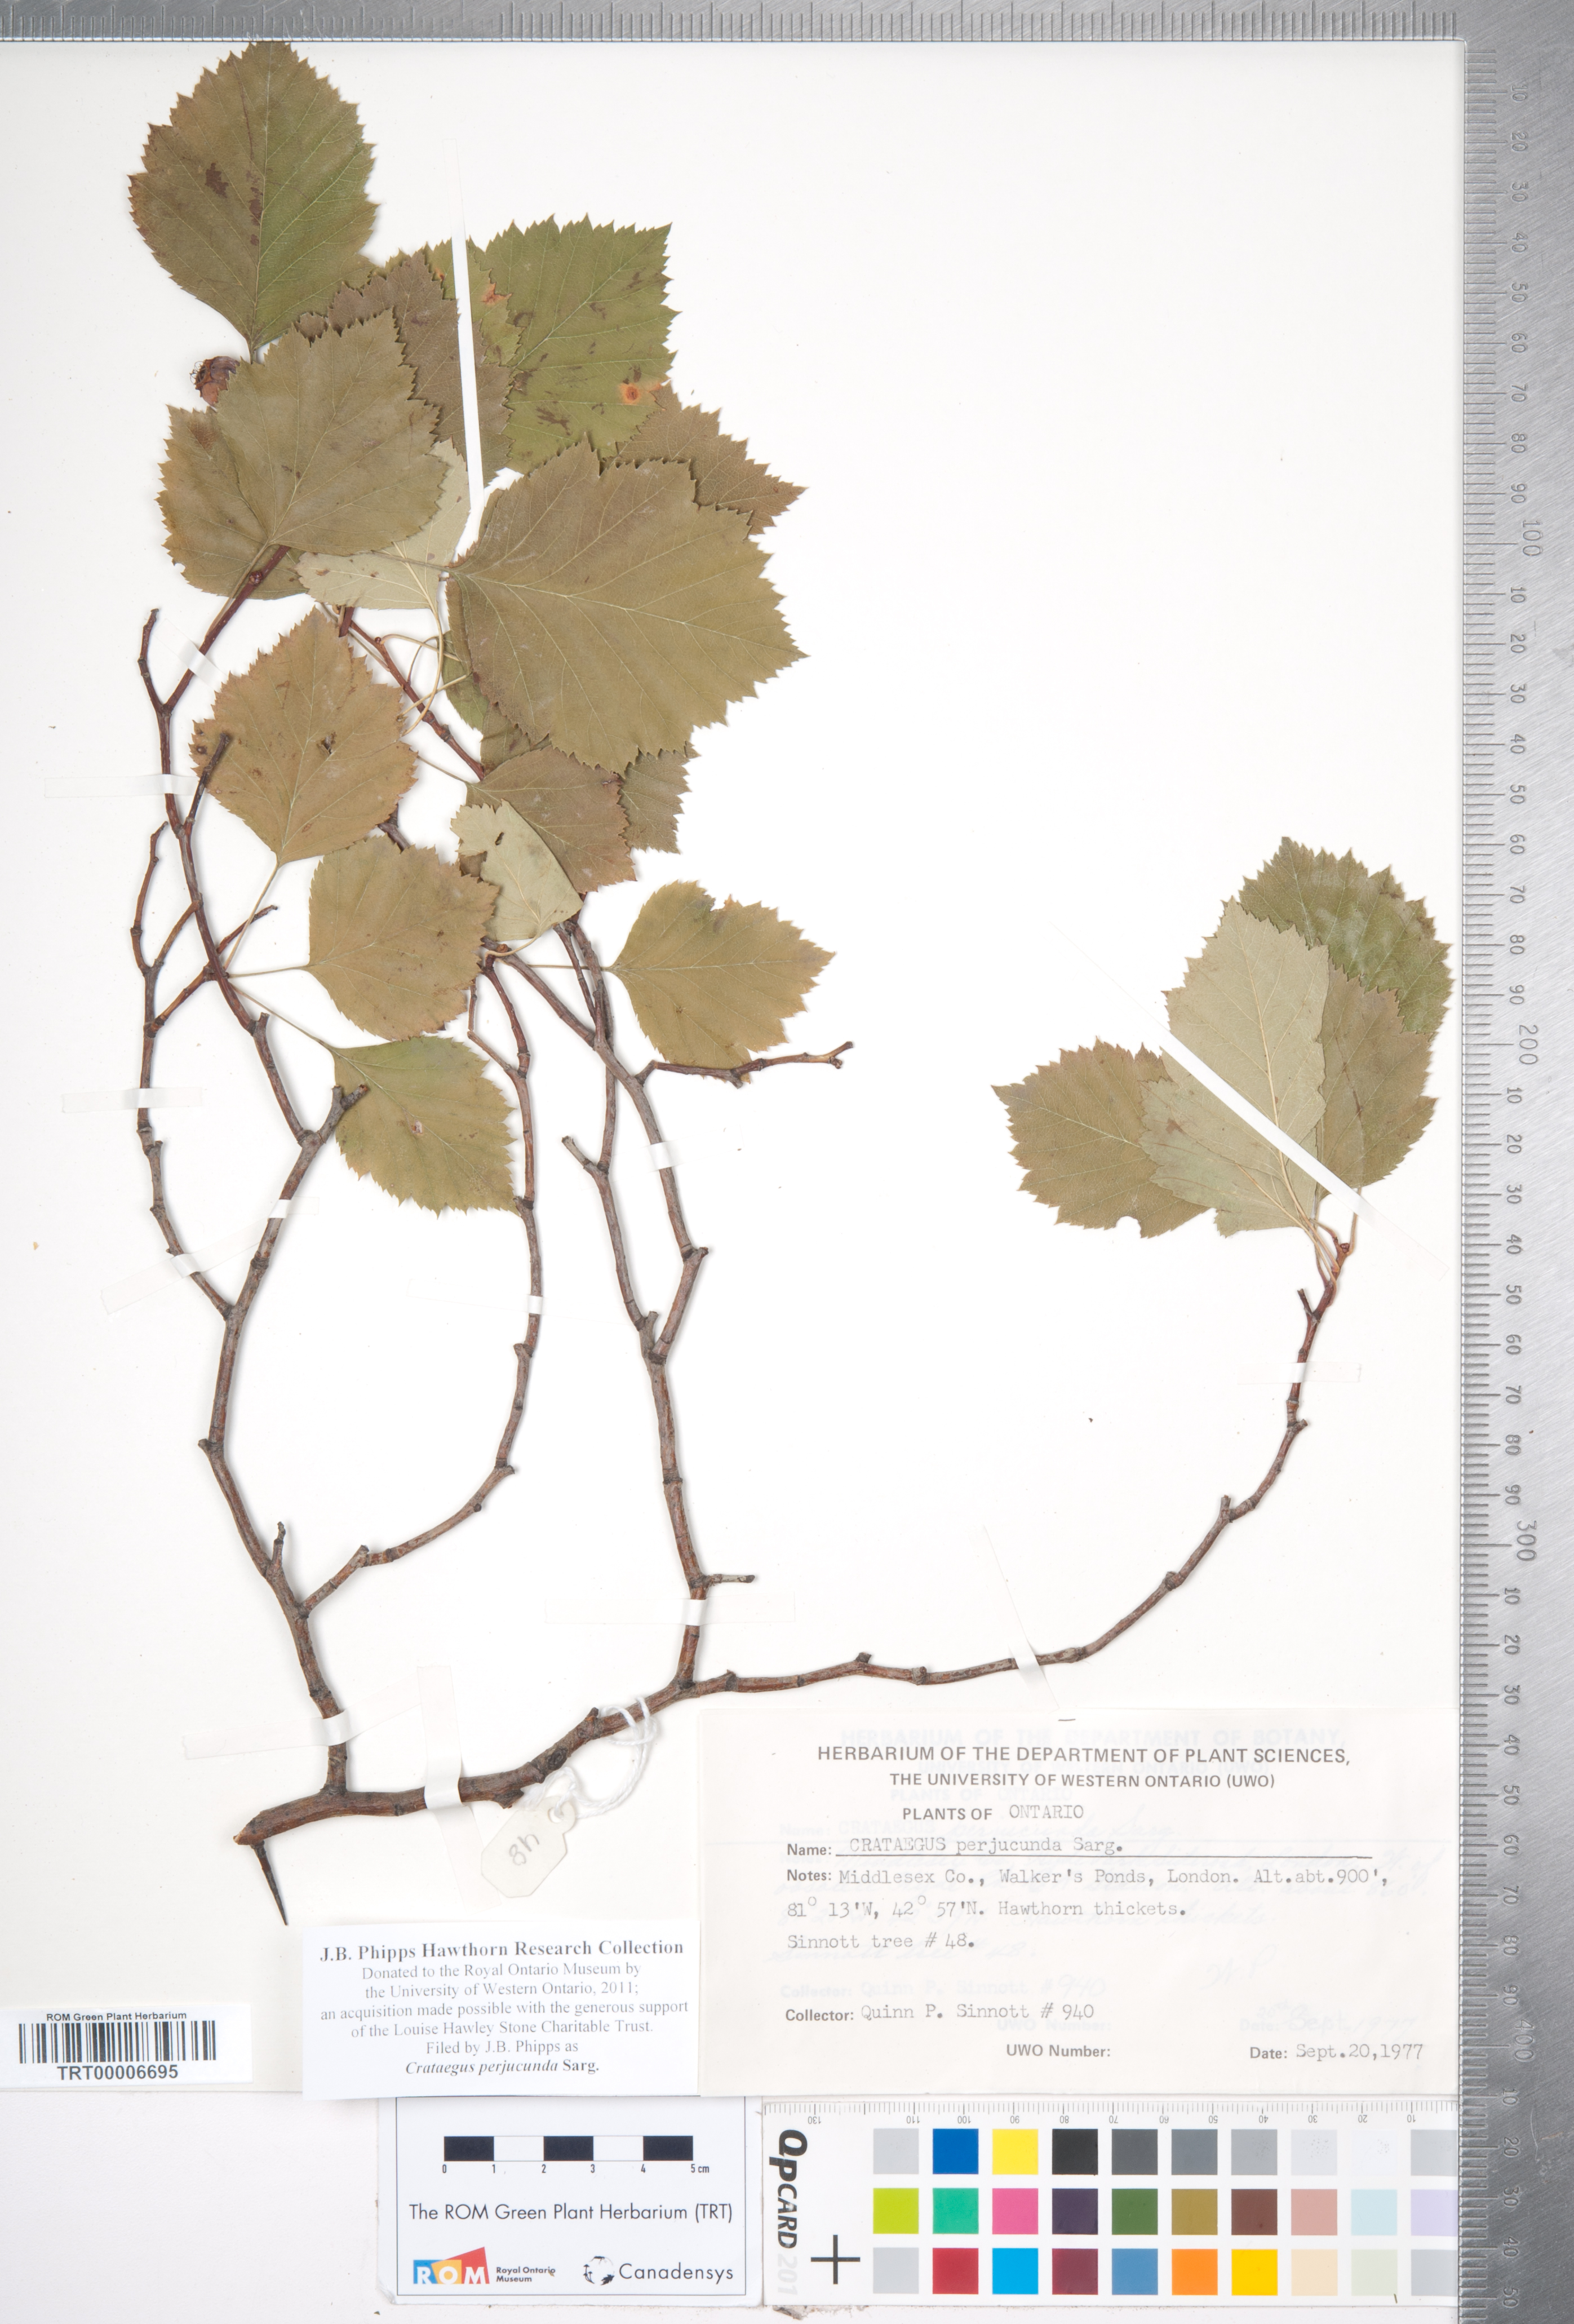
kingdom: Plantae
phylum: Tracheophyta
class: Magnoliopsida
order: Rosales
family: Rosaceae
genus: Crataegus
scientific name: Crataegus cognata
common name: Cognate hawthorn
